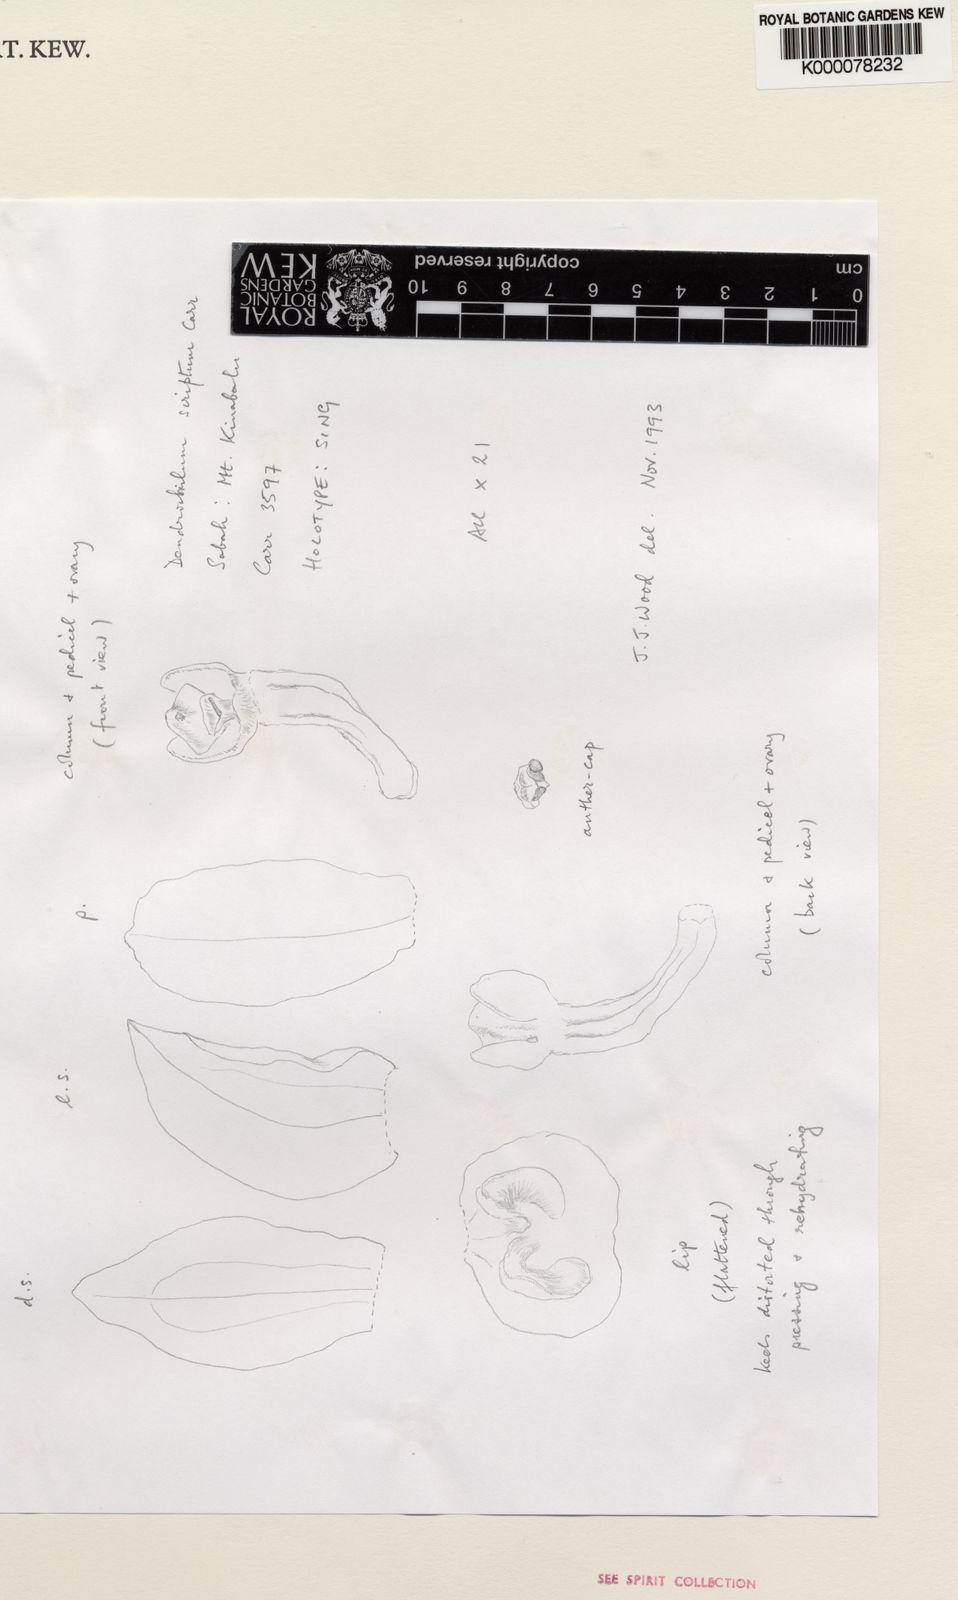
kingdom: Plantae
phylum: Tracheophyta
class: Liliopsida
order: Asparagales
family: Orchidaceae
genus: Coelogyne
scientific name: Coelogyne scripta
